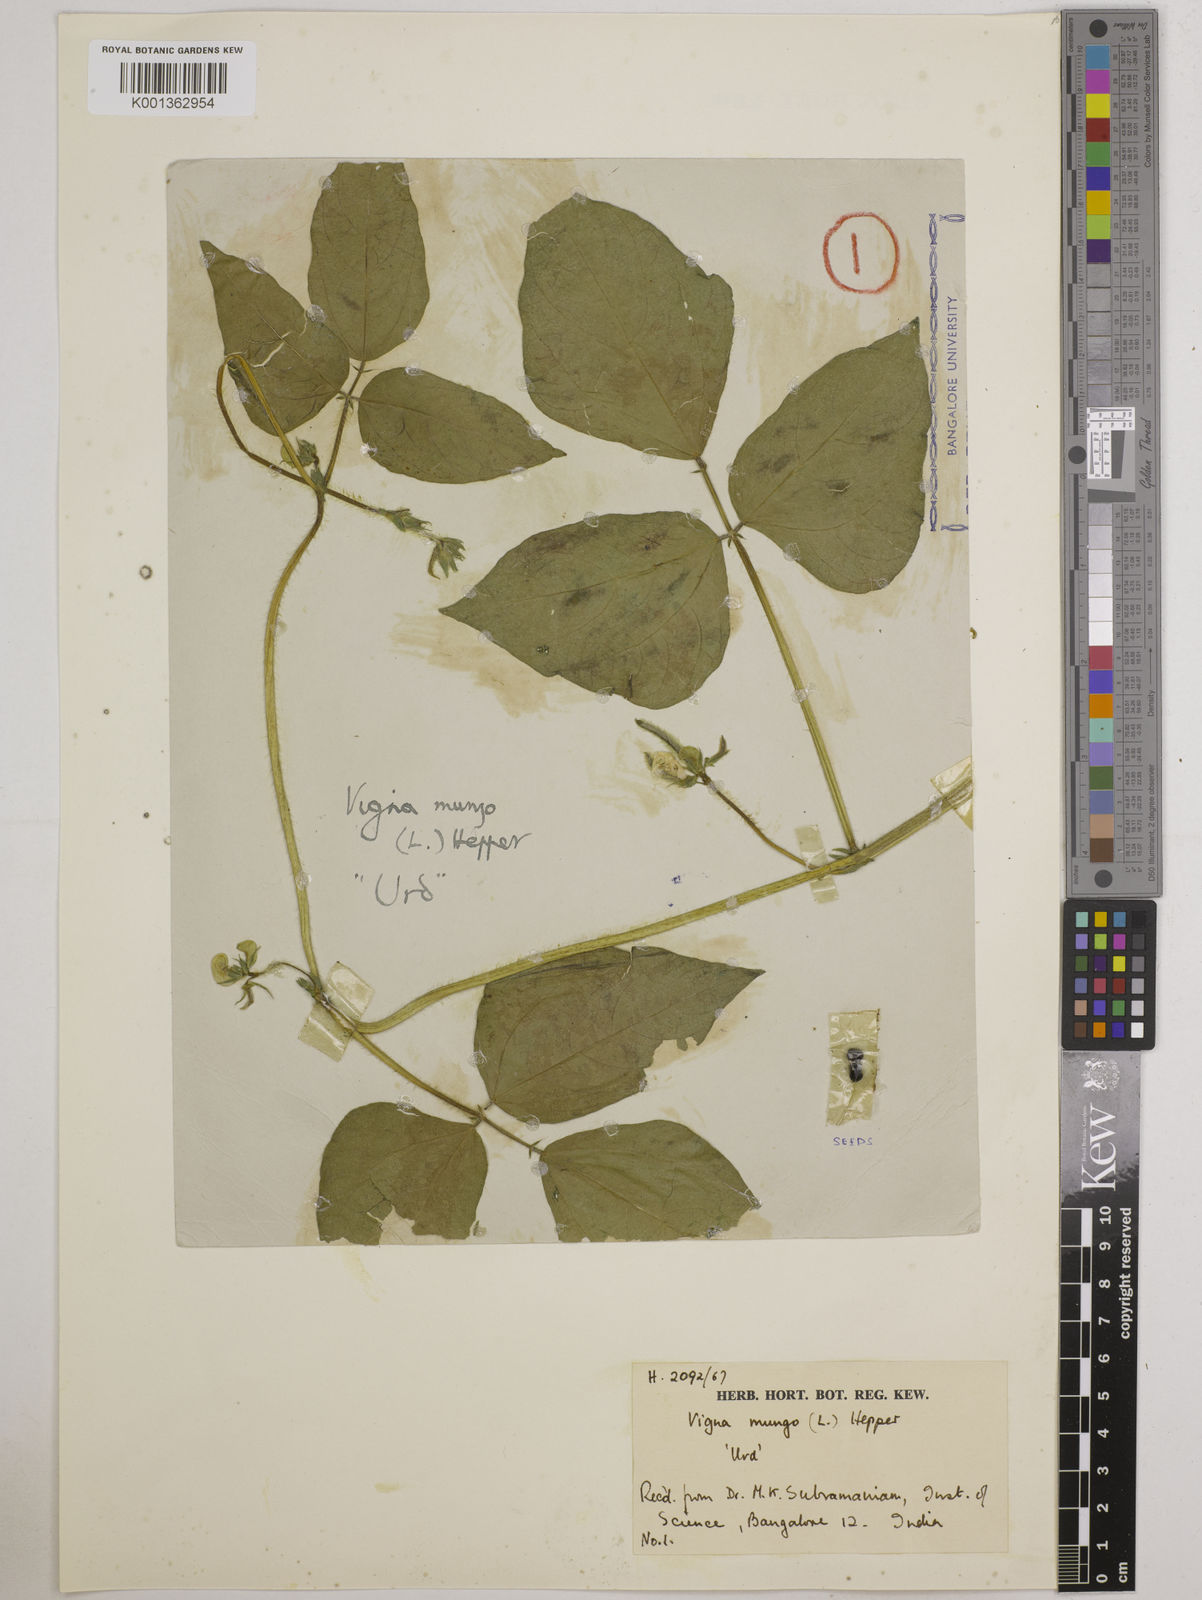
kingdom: Plantae
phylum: Tracheophyta
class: Magnoliopsida
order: Fabales
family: Fabaceae
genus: Vigna
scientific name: Vigna mungo
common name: Black gram
